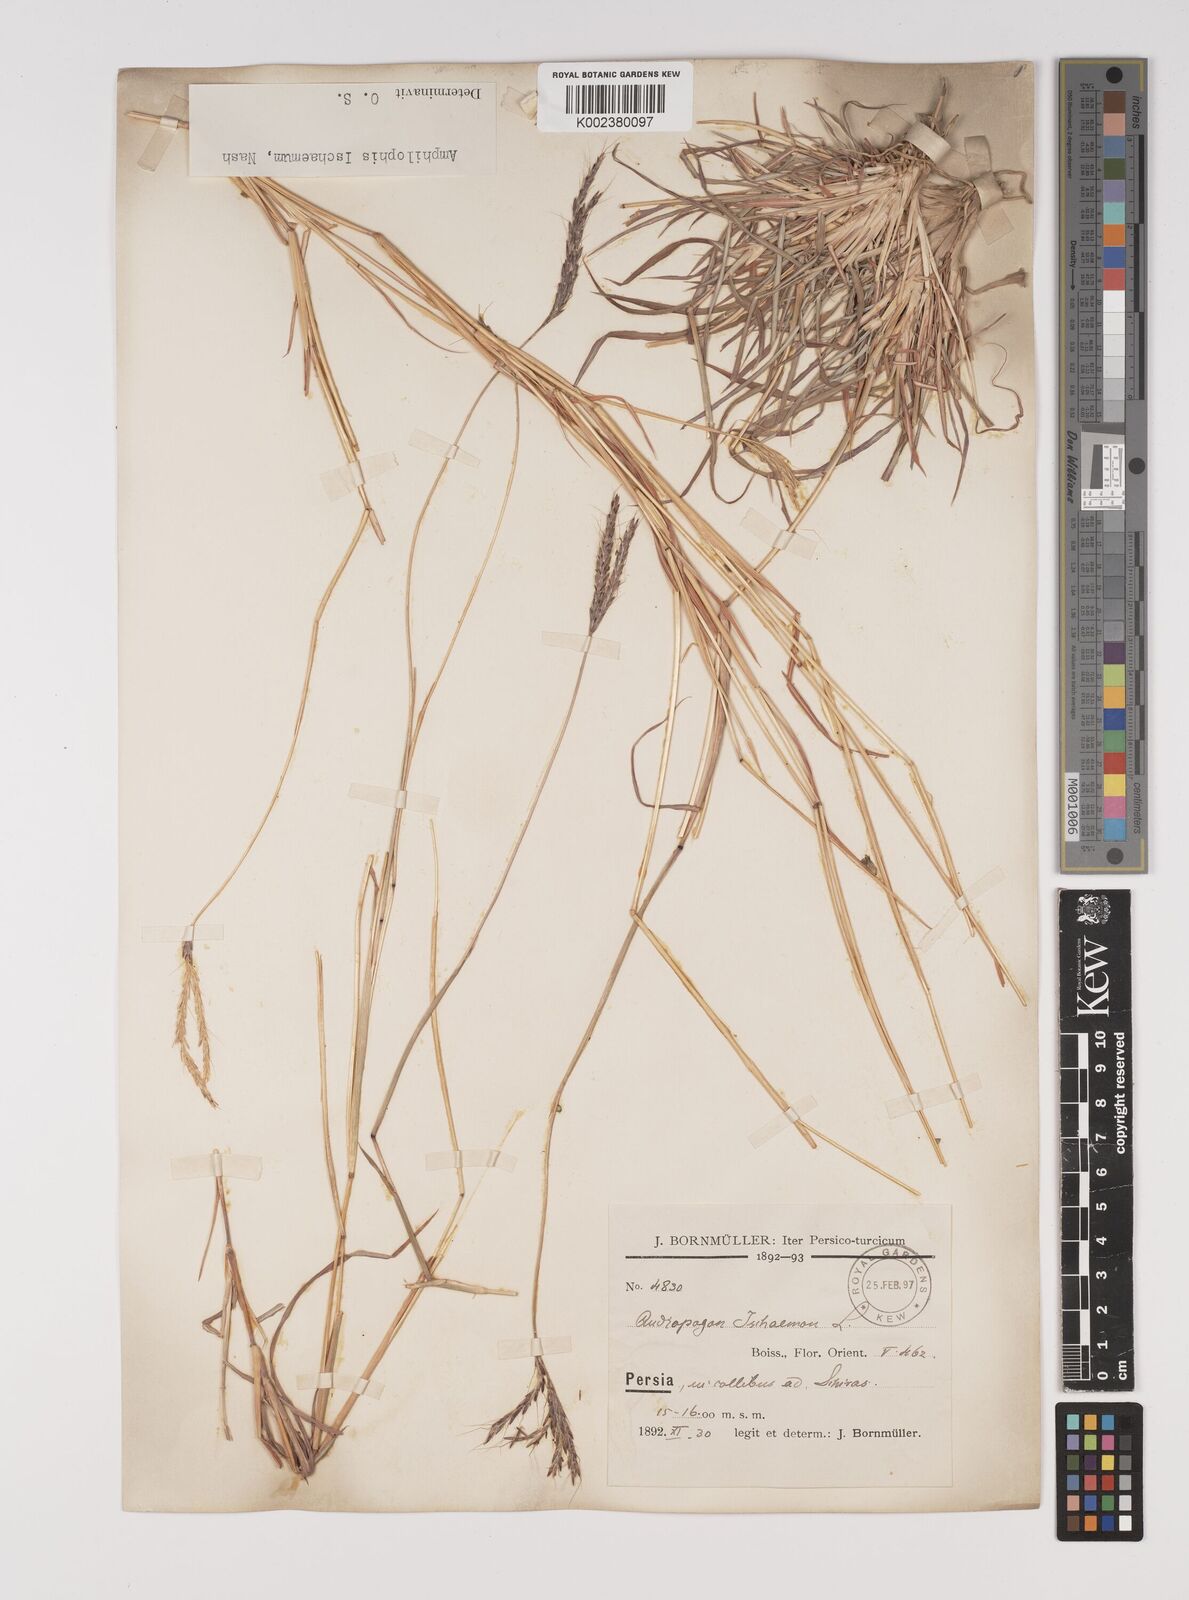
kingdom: Plantae
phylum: Tracheophyta
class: Liliopsida
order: Poales
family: Poaceae
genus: Bothriochloa
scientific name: Bothriochloa ischaemum
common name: Yellow bluestem
